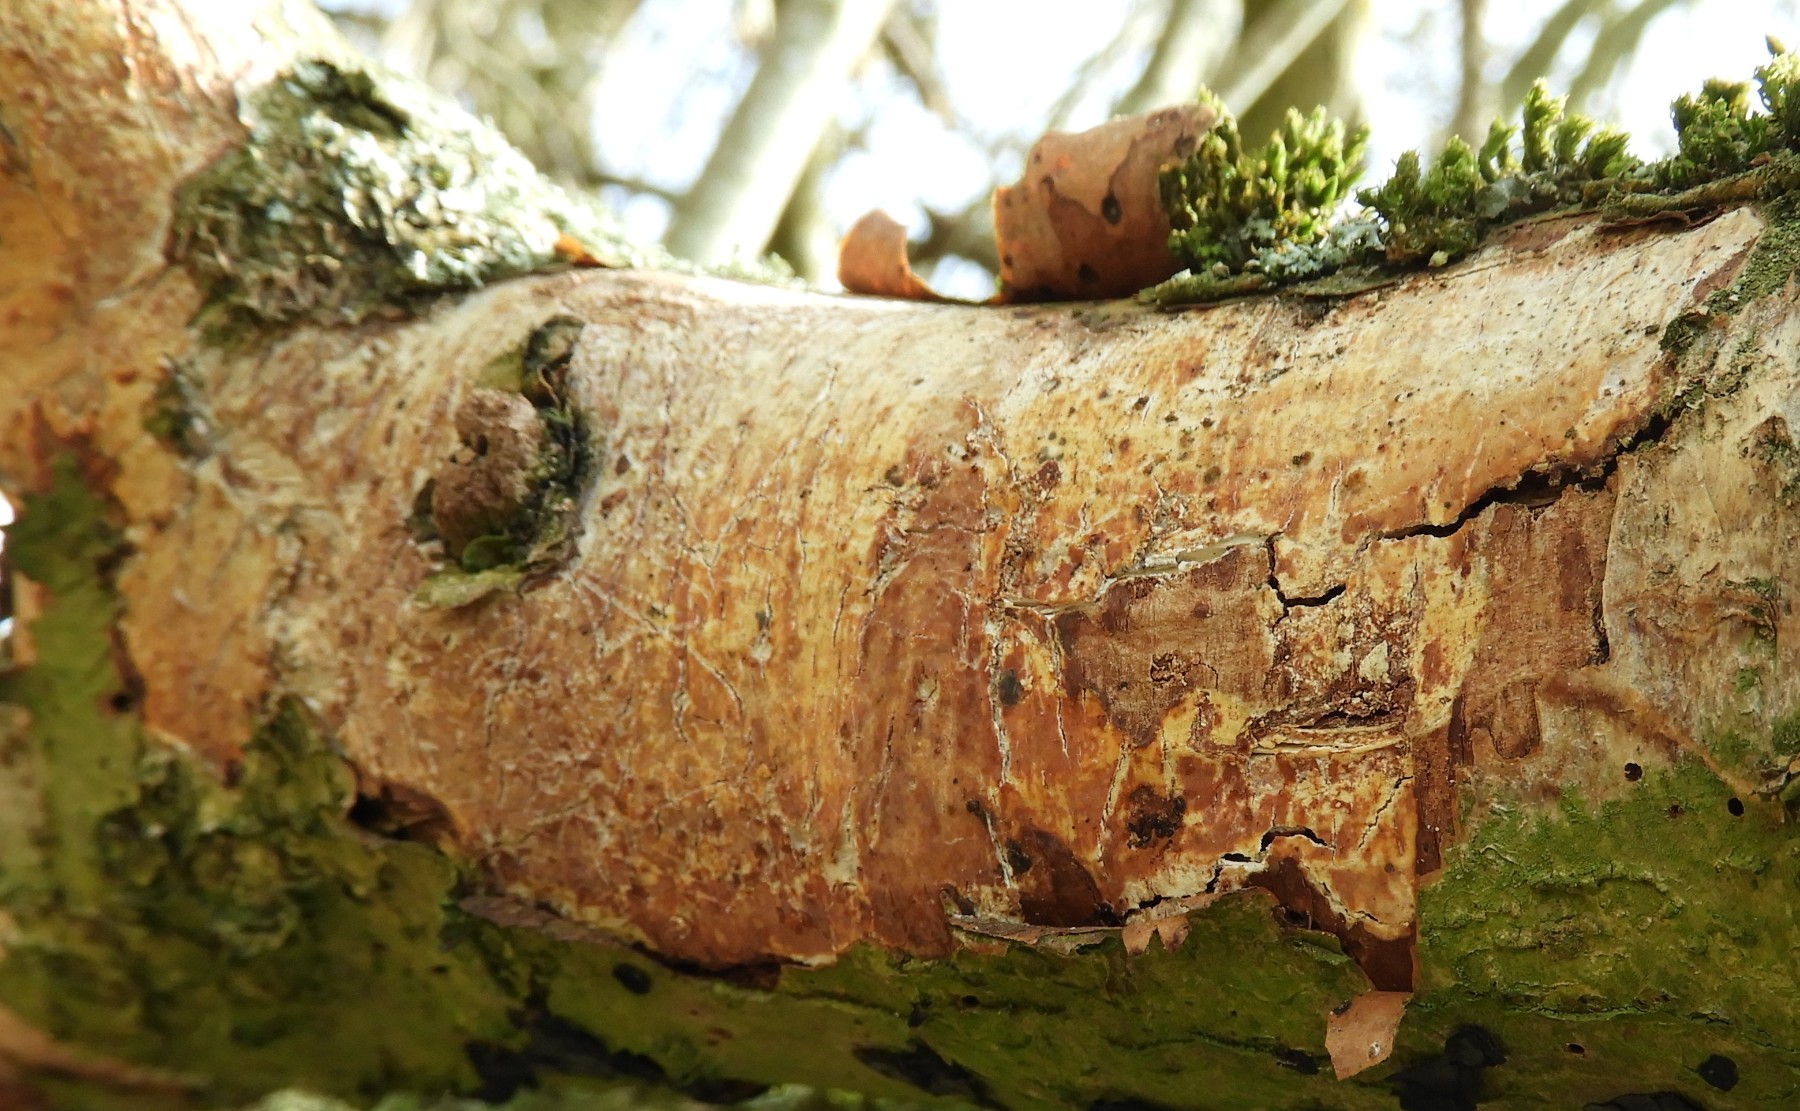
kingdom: Fungi
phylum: Basidiomycota
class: Agaricomycetes
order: Corticiales
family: Corticiaceae
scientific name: Corticiaceae
